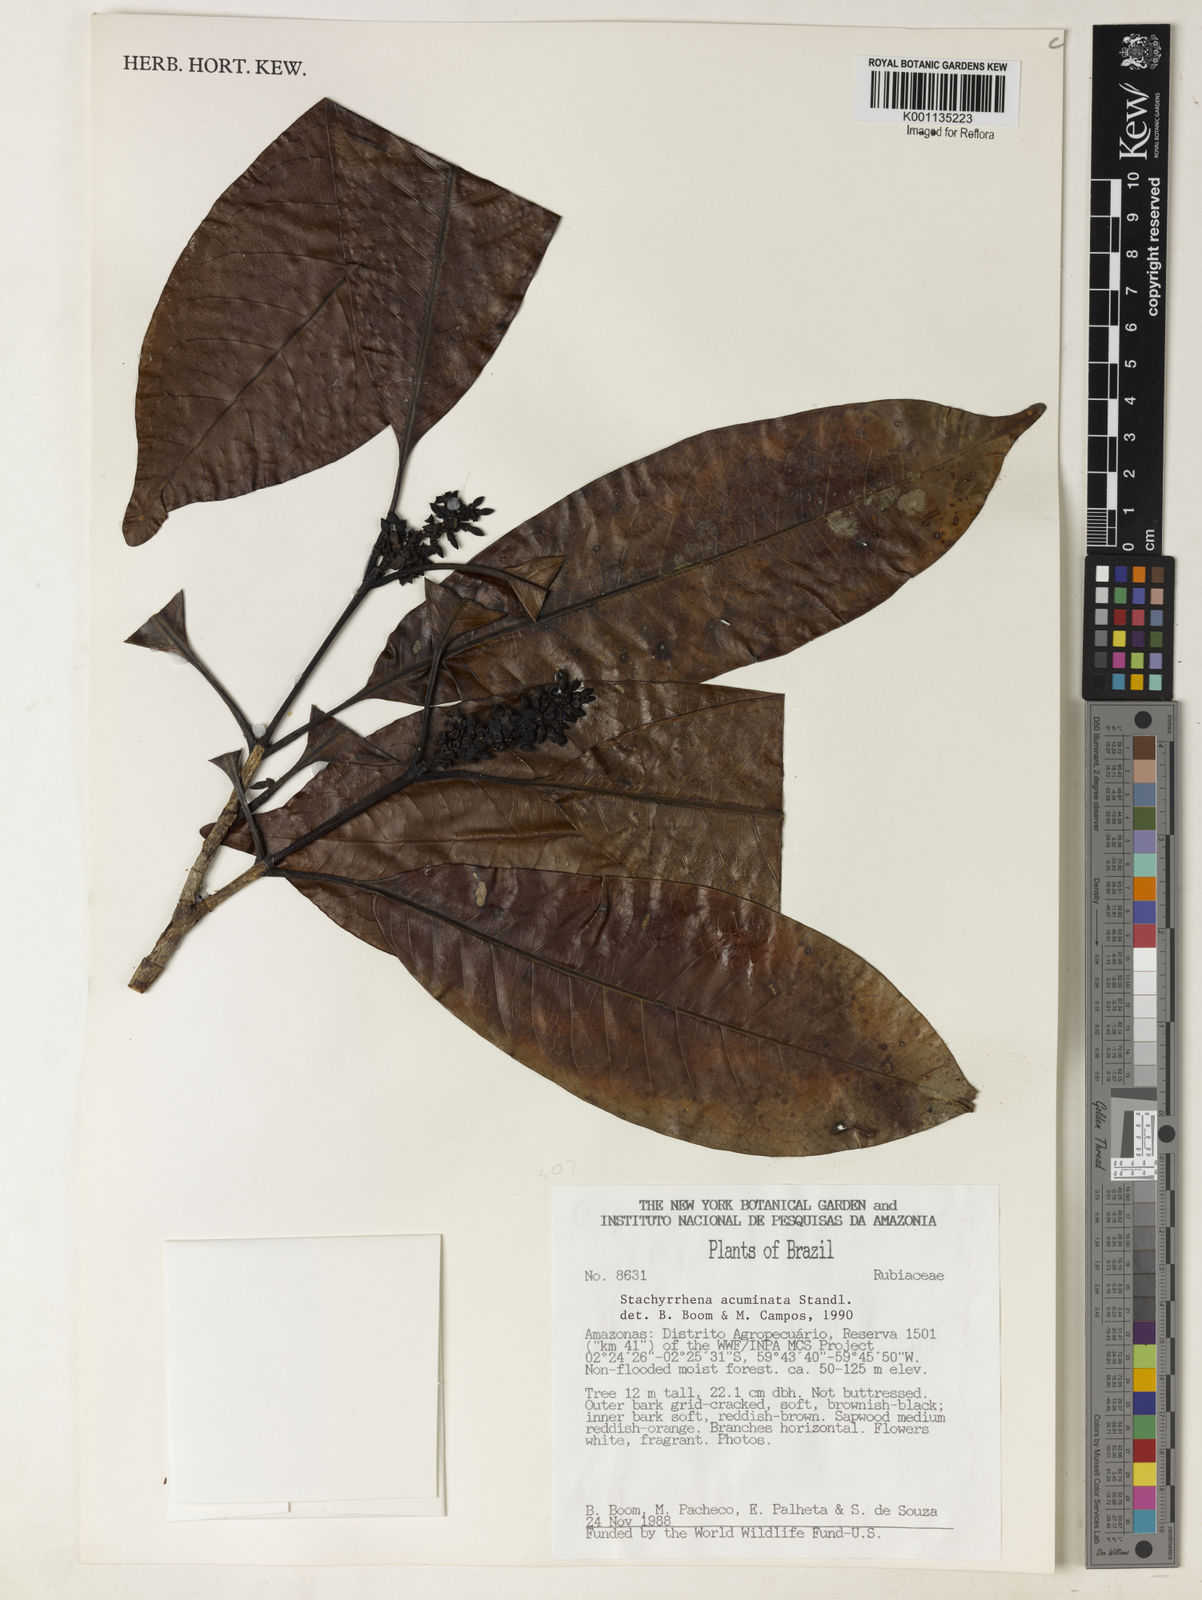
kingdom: Plantae
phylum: Tracheophyta
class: Magnoliopsida
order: Gentianales
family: Rubiaceae
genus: Stachyarrhena
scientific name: Stachyarrhena acuminata
